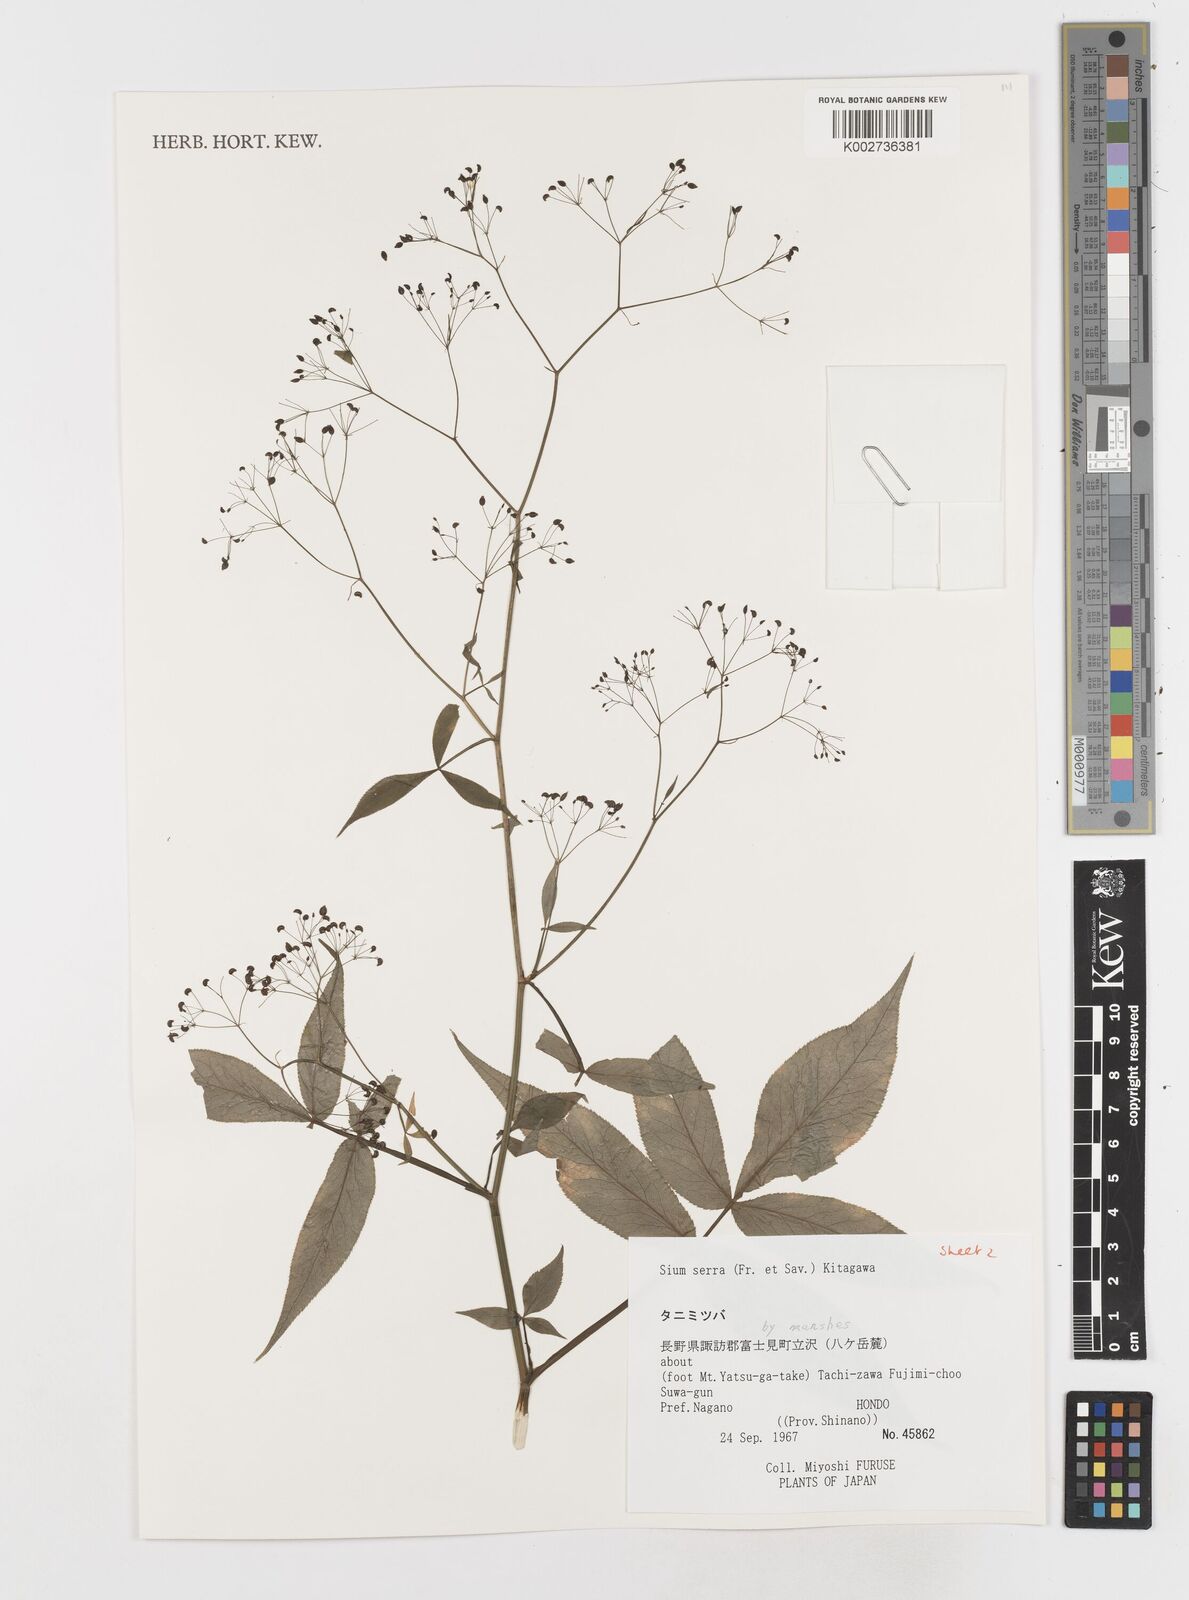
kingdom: Plantae
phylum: Tracheophyta
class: Magnoliopsida
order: Apiales
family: Apiaceae
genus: Sium
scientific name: Sium serra
